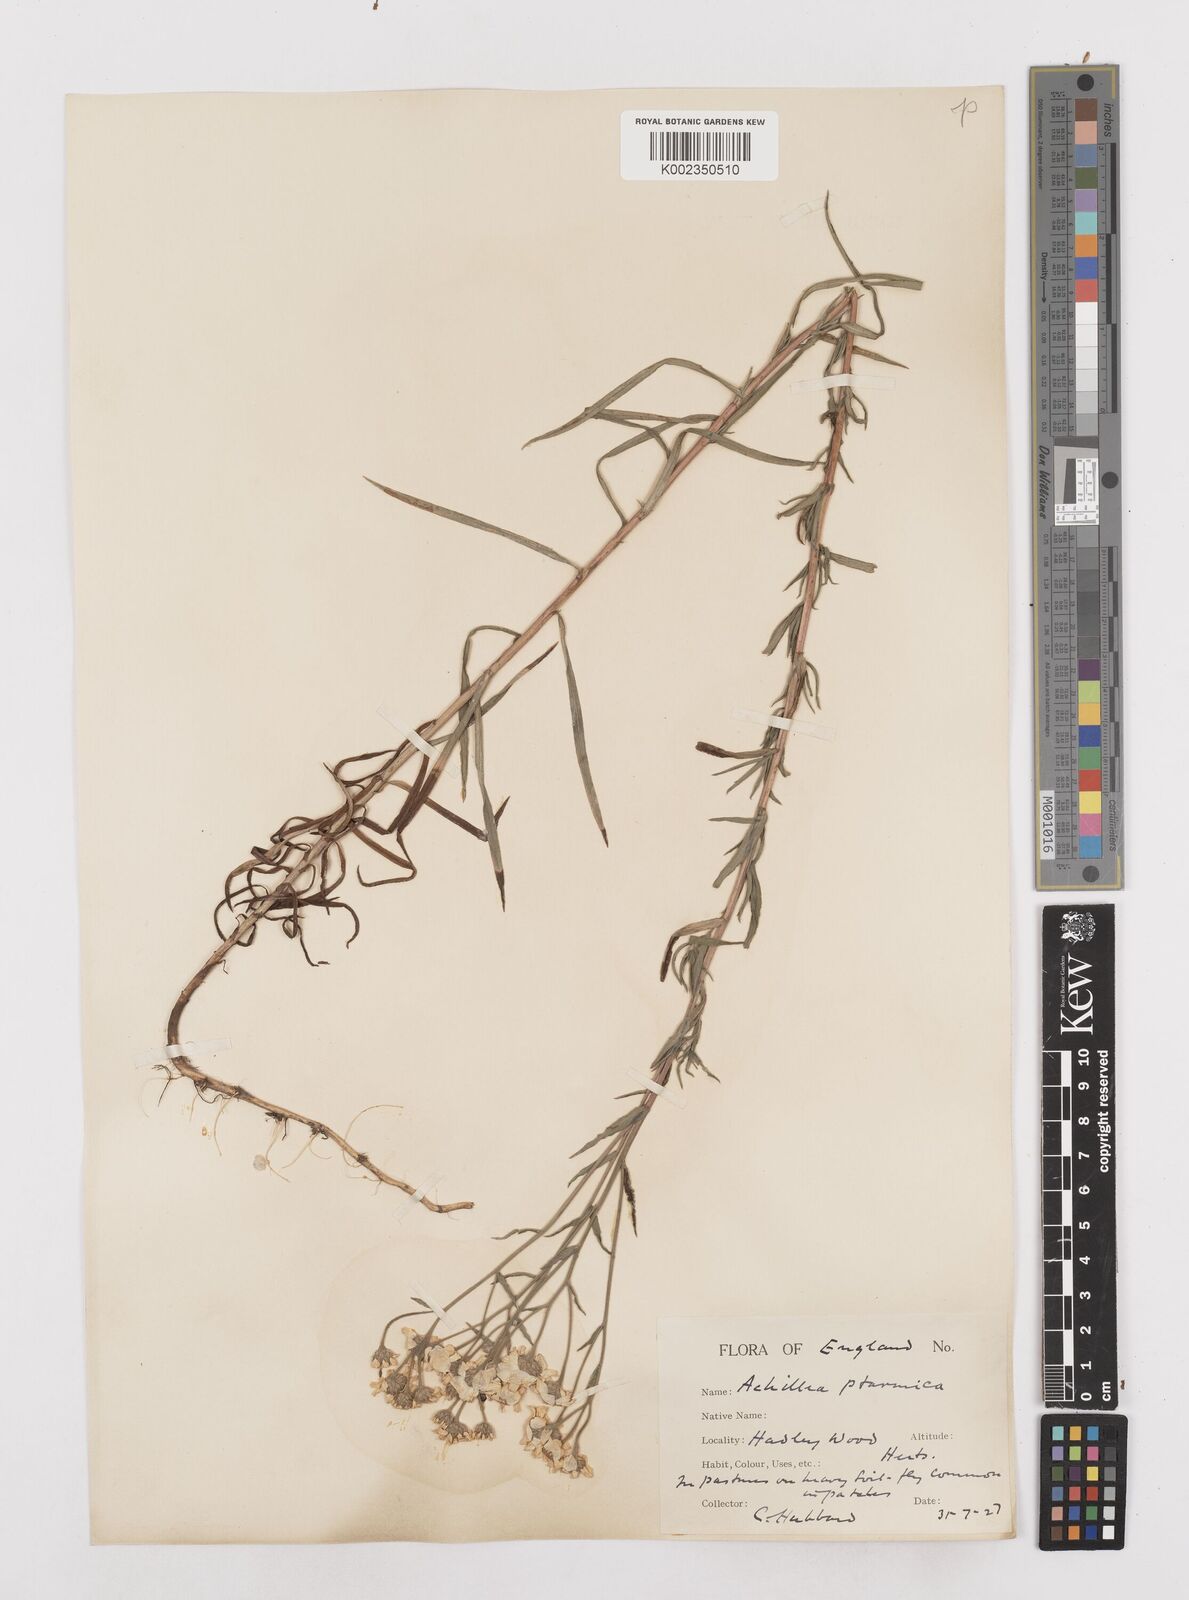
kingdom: Plantae
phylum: Tracheophyta
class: Magnoliopsida
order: Asterales
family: Asteraceae
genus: Achillea
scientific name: Achillea ptarmica
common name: Sneezeweed
